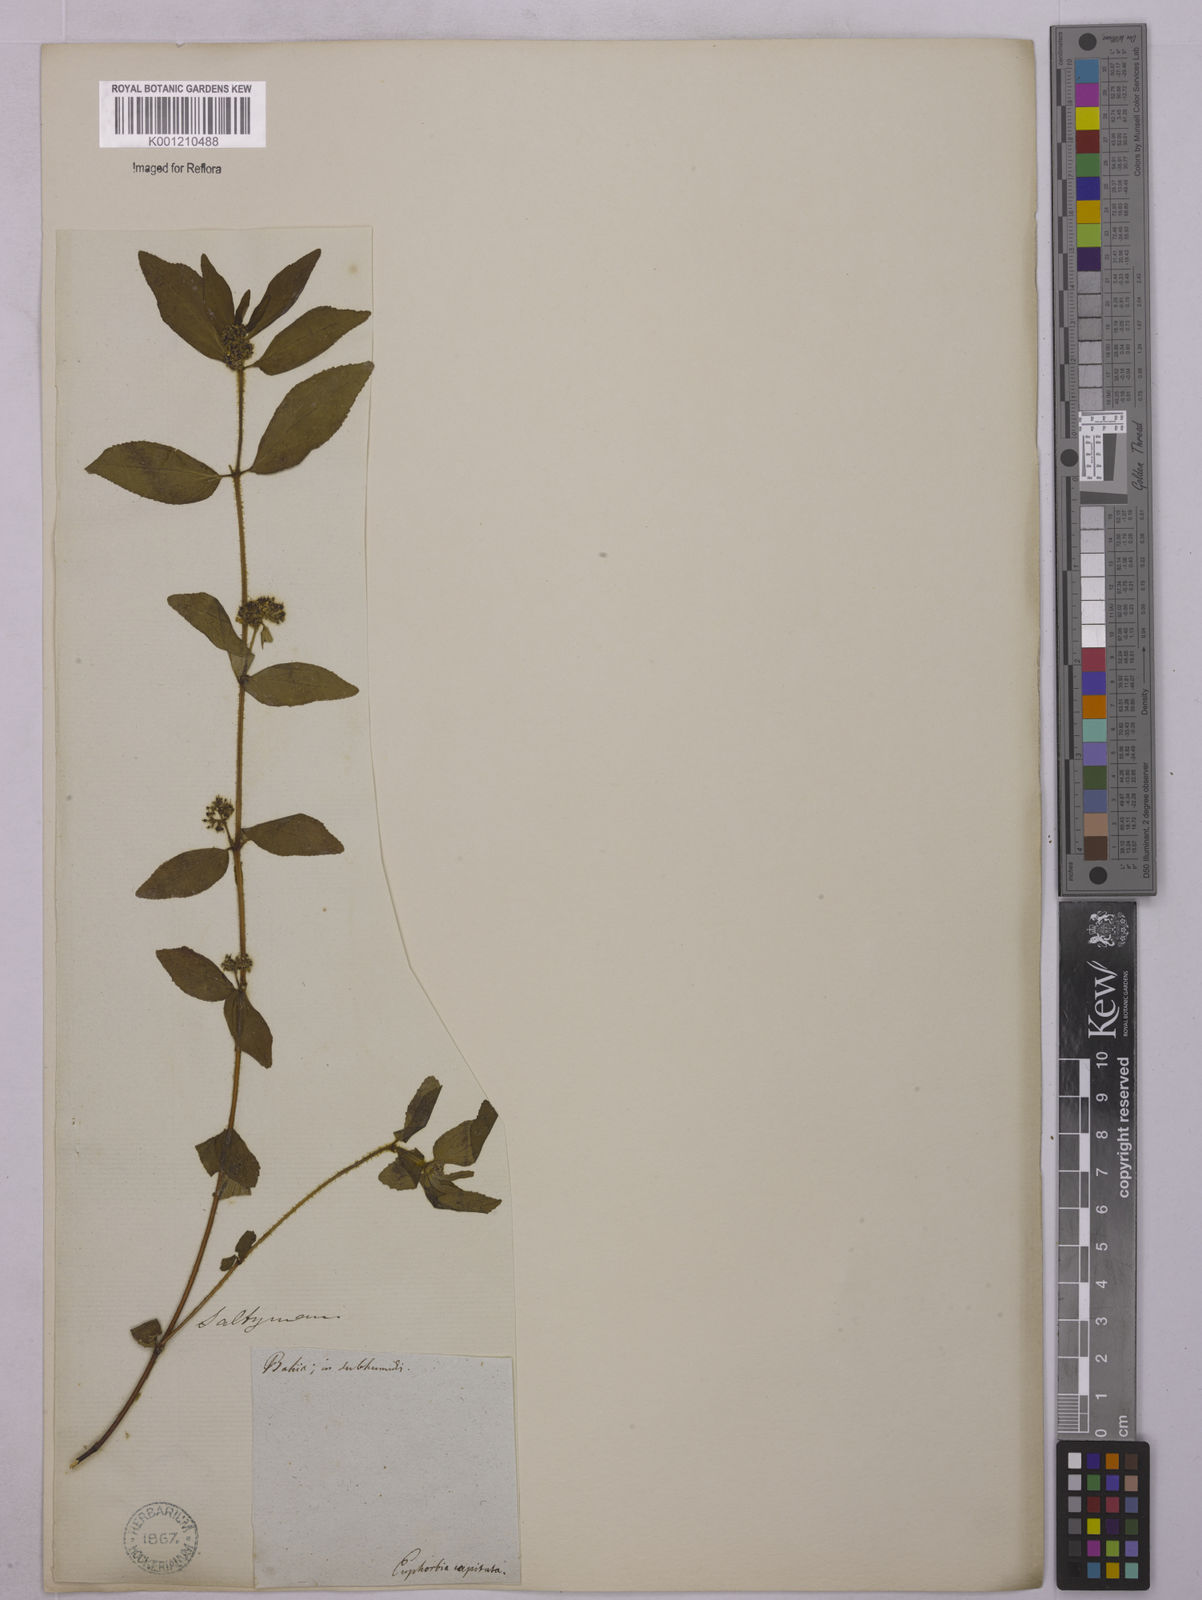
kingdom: Plantae
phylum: Tracheophyta
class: Magnoliopsida
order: Malpighiales
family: Euphorbiaceae
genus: Euphorbia
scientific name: Euphorbia hirta
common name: Pillpod sandmat
